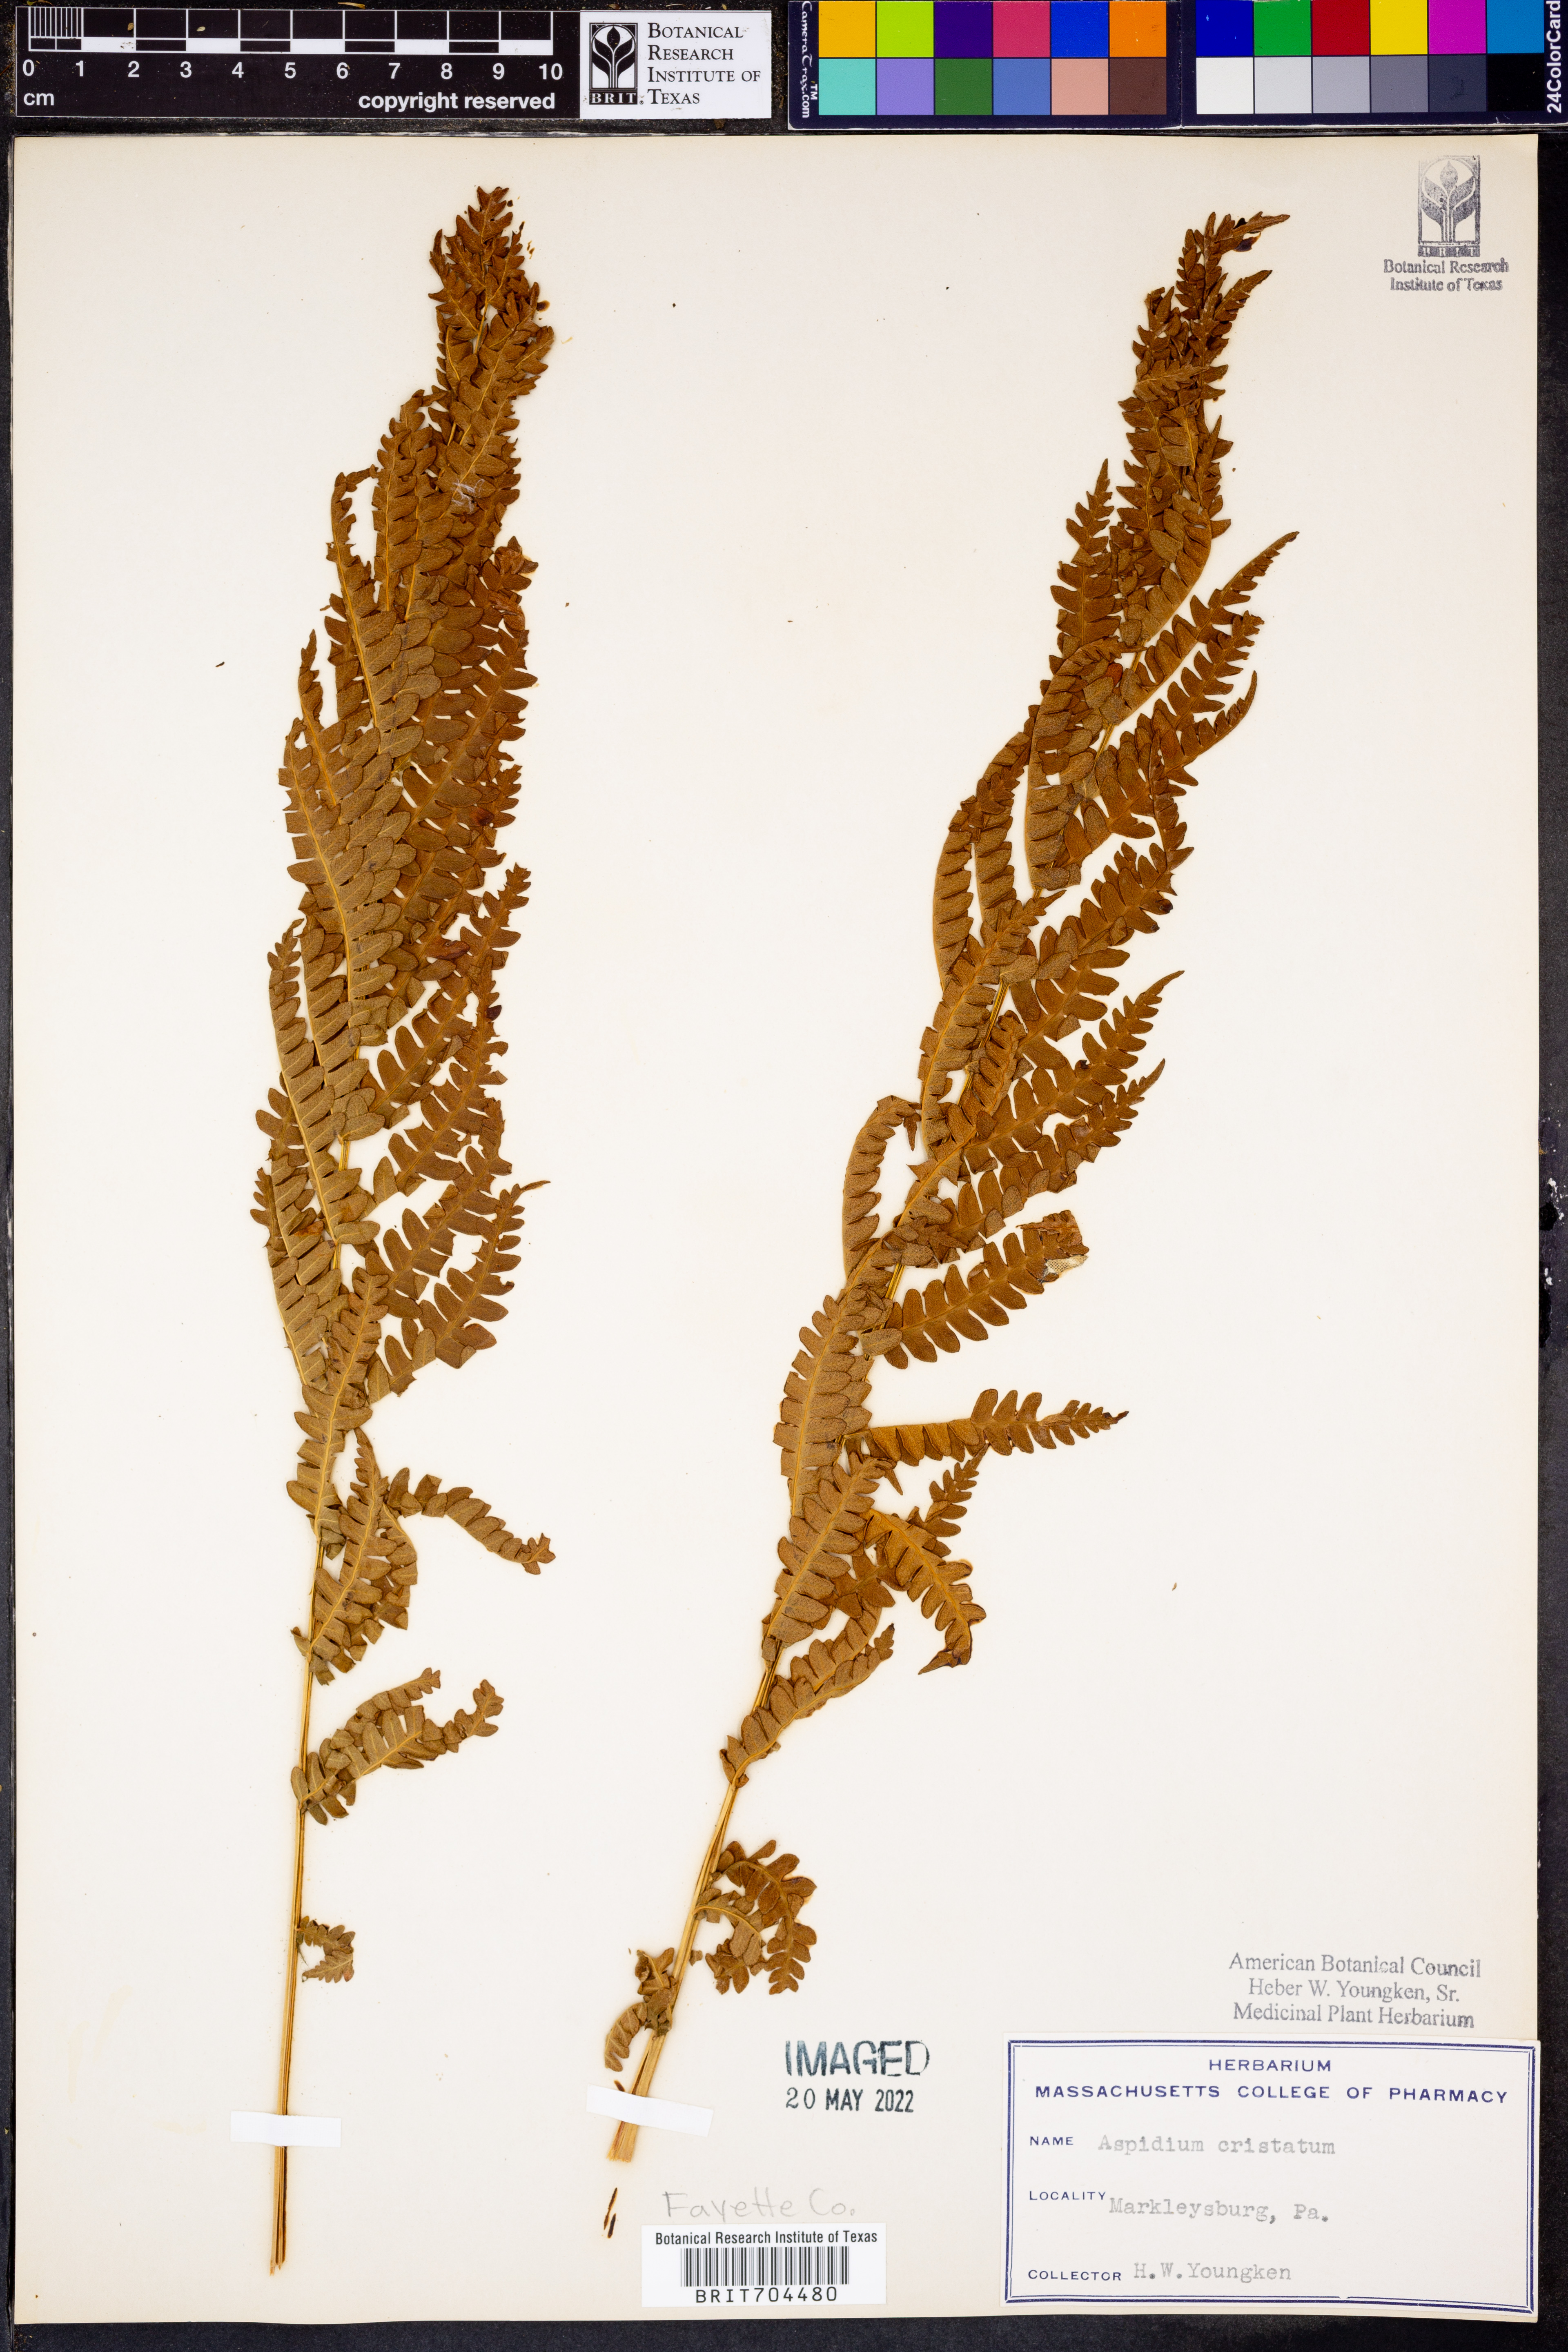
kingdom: Plantae
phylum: Tracheophyta
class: Polypodiopsida
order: Polypodiales
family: Dryopteridaceae
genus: Dryopteris
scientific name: Dryopteris cristata
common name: Crested wood fern
